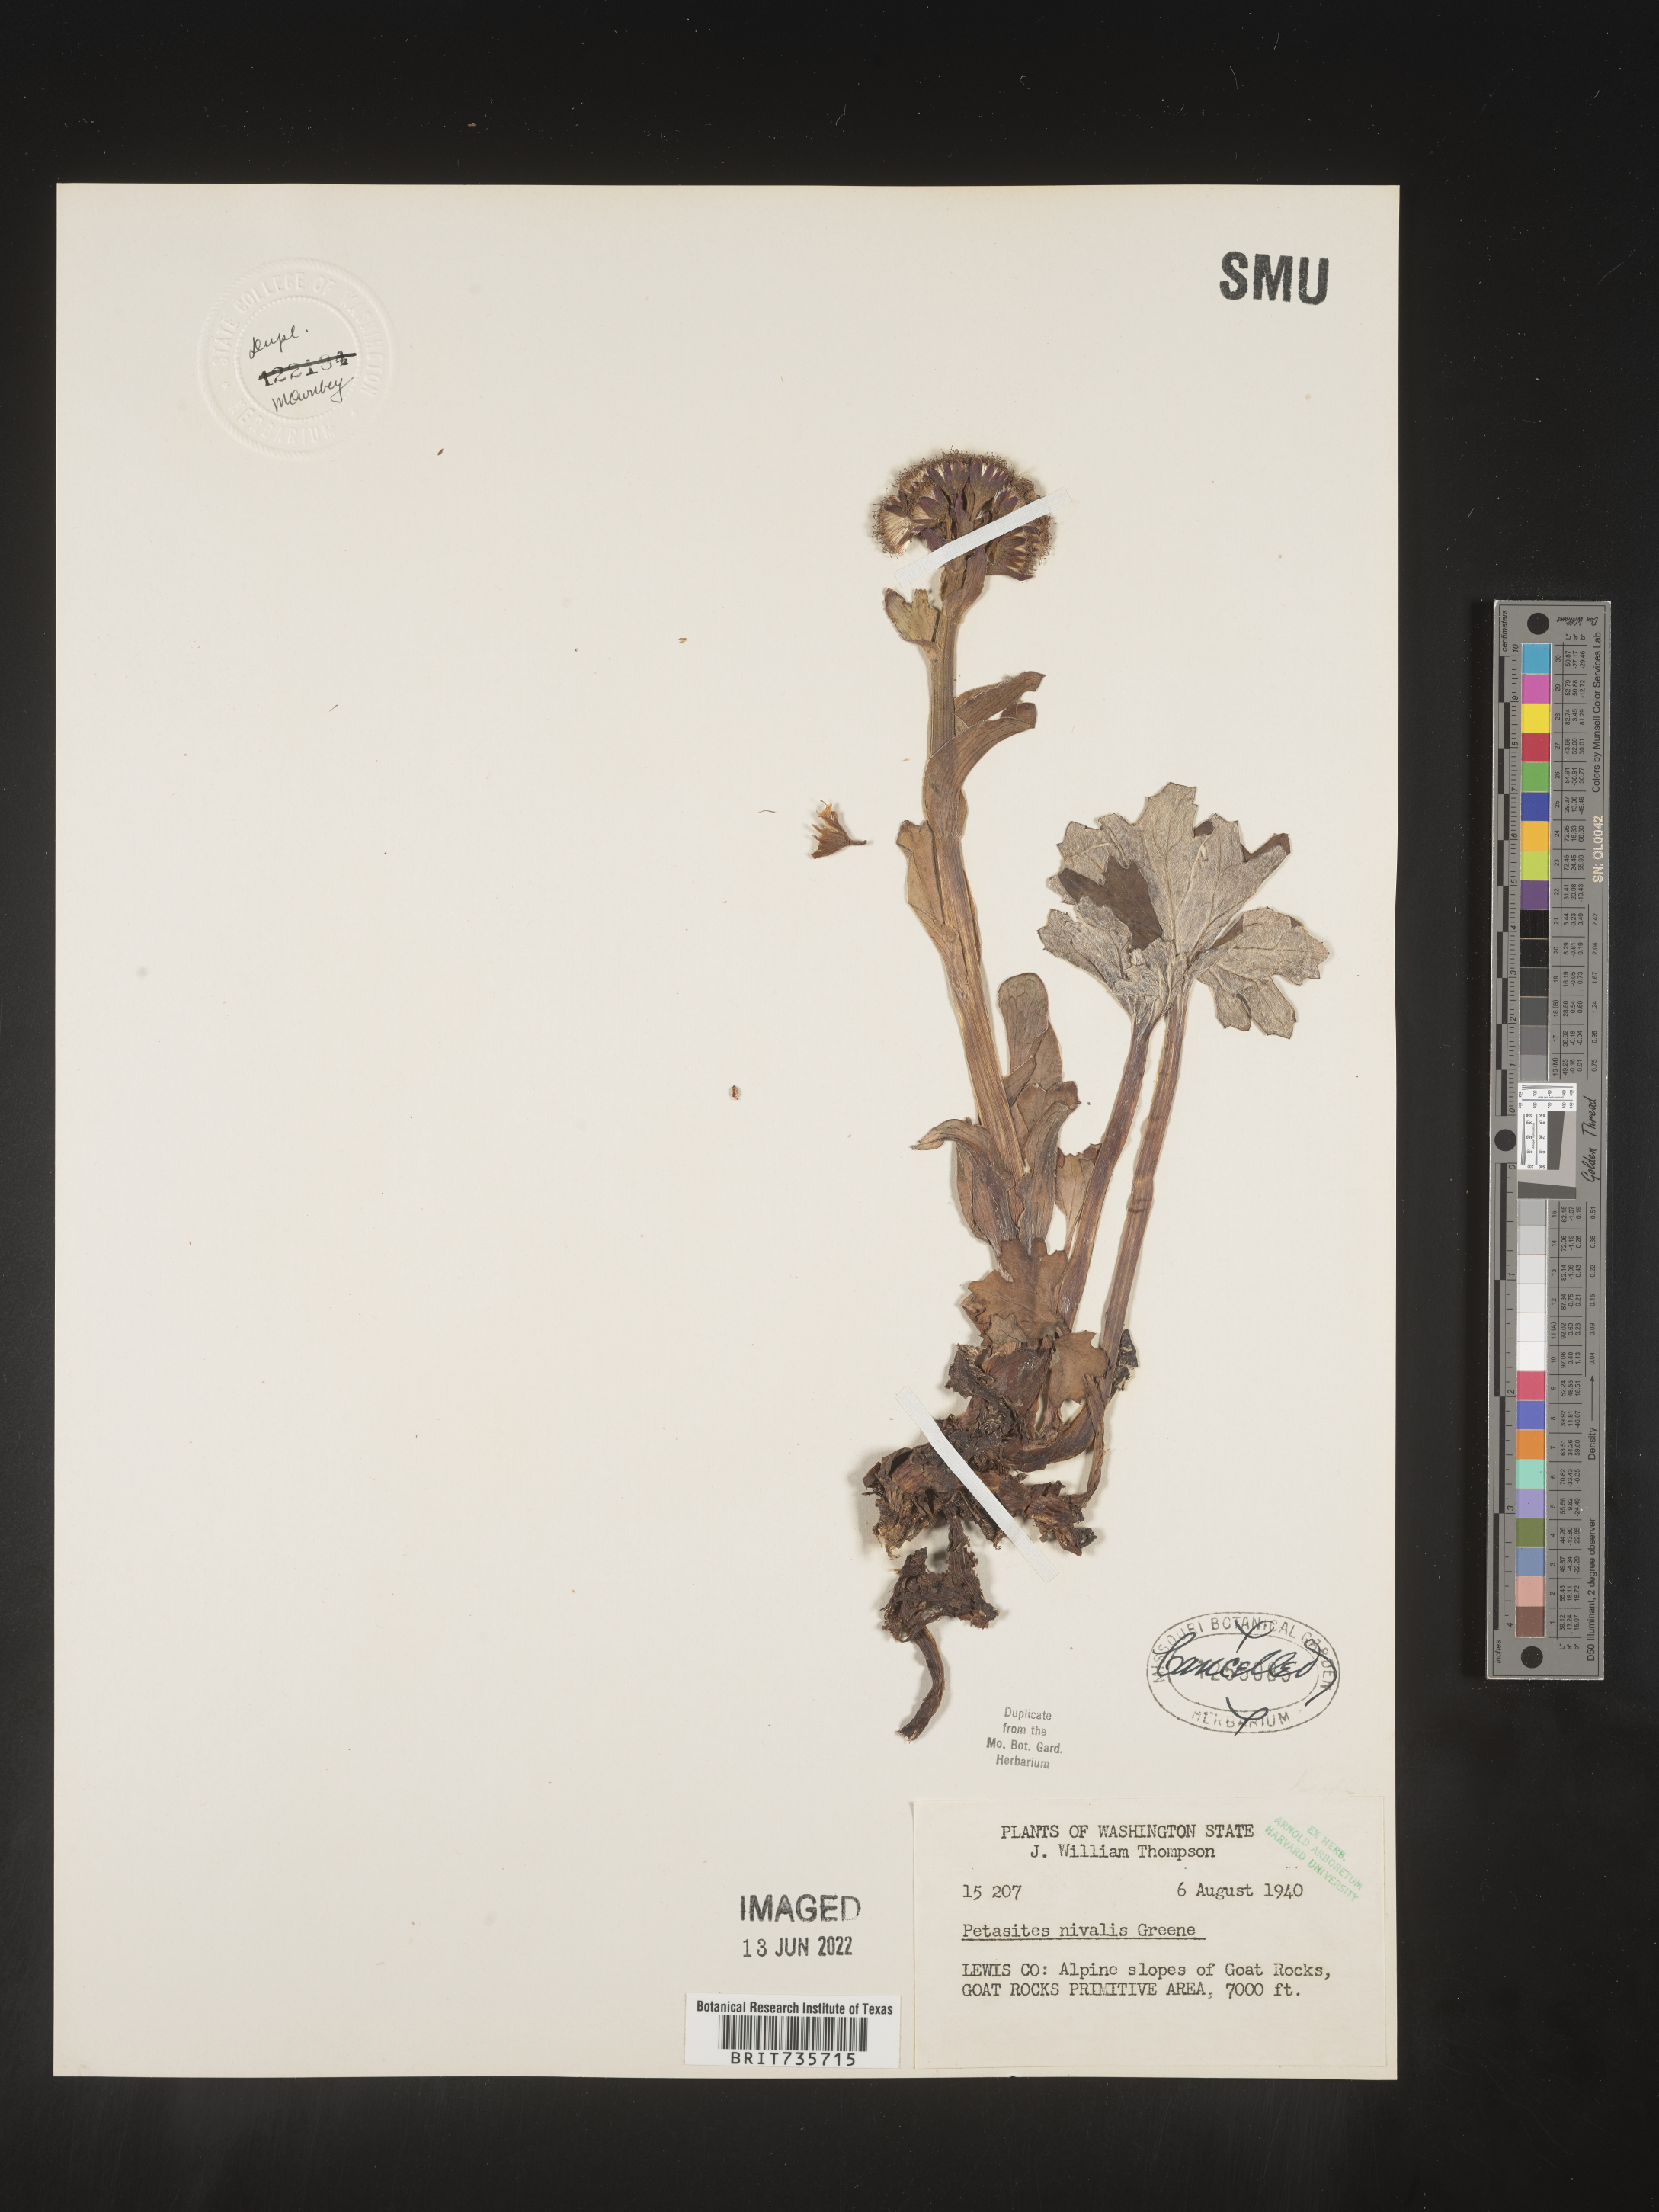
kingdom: Plantae
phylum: Tracheophyta
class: Magnoliopsida
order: Asterales
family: Asteraceae
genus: Petasites
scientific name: Petasites frigidus
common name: Arctic butterbur
